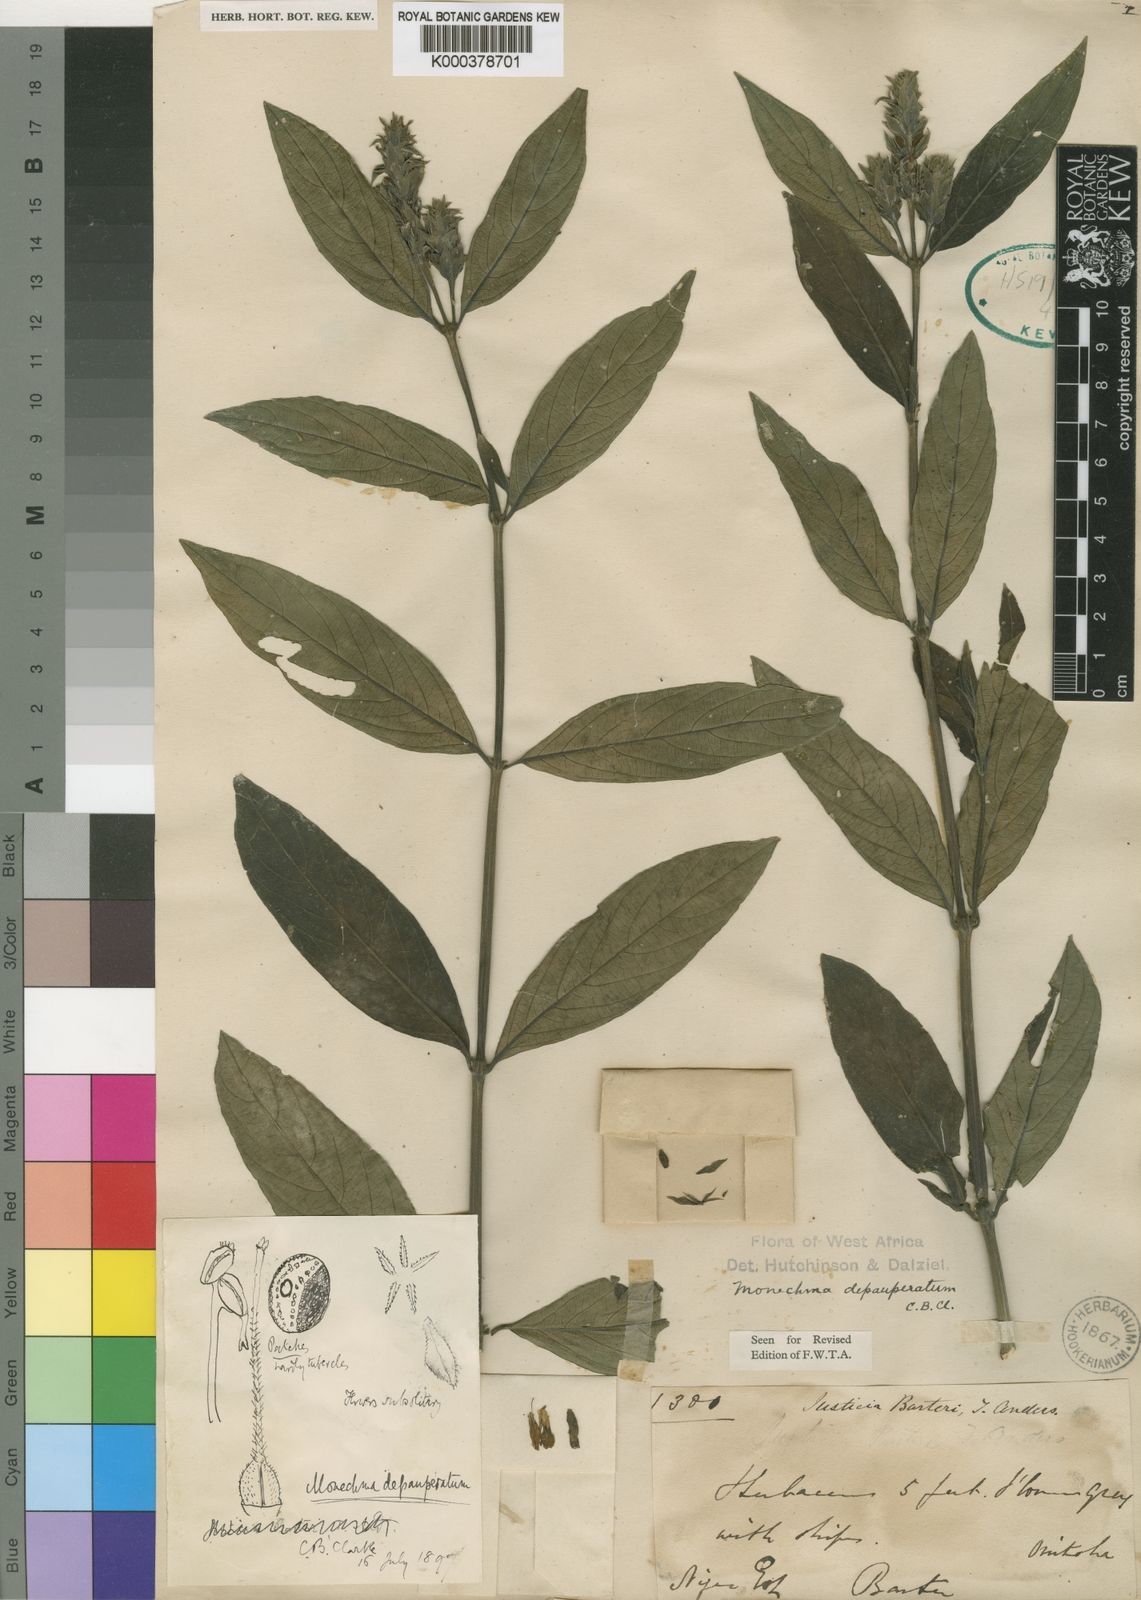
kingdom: Plantae
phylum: Tracheophyta
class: Magnoliopsida
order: Lamiales
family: Acanthaceae
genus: Monechma
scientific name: Monechma depauperatum
